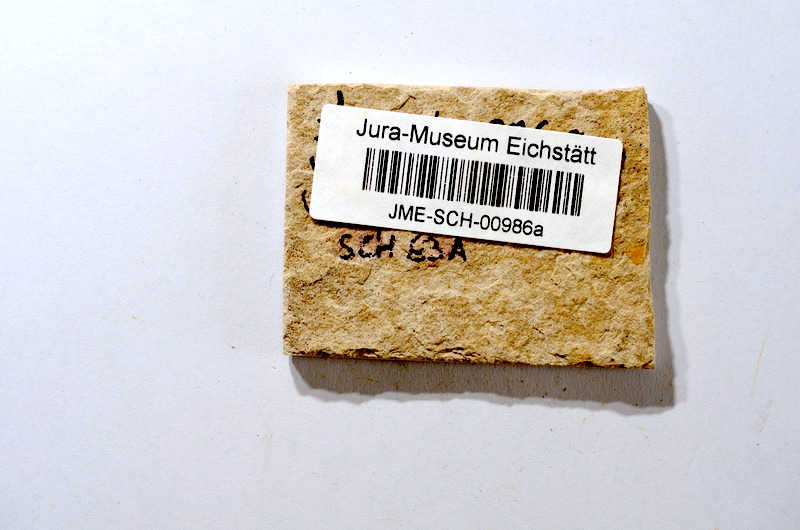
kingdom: Animalia
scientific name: Animalia
